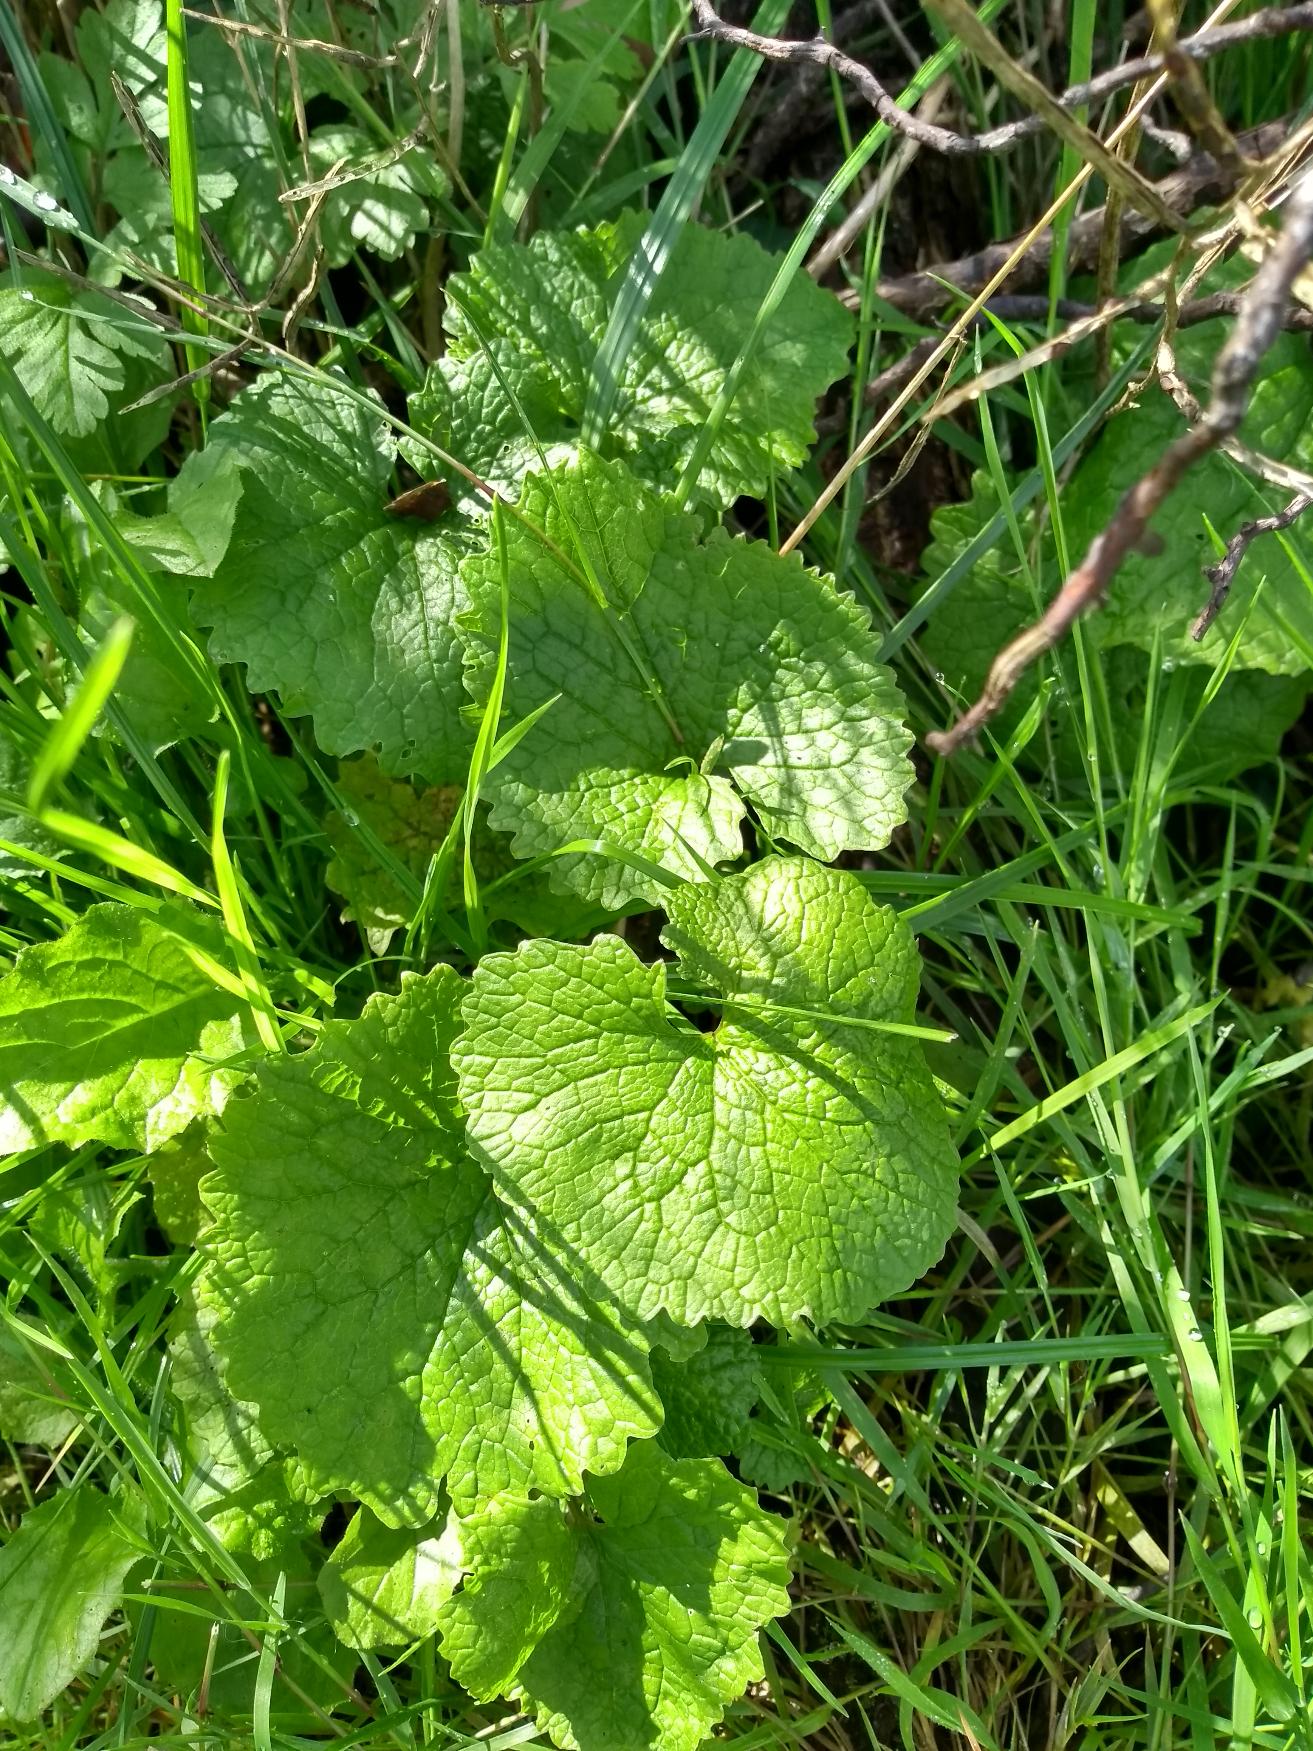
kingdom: Plantae
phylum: Tracheophyta
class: Magnoliopsida
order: Brassicales
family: Brassicaceae
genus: Alliaria
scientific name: Alliaria petiolata
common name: Løgkarse
